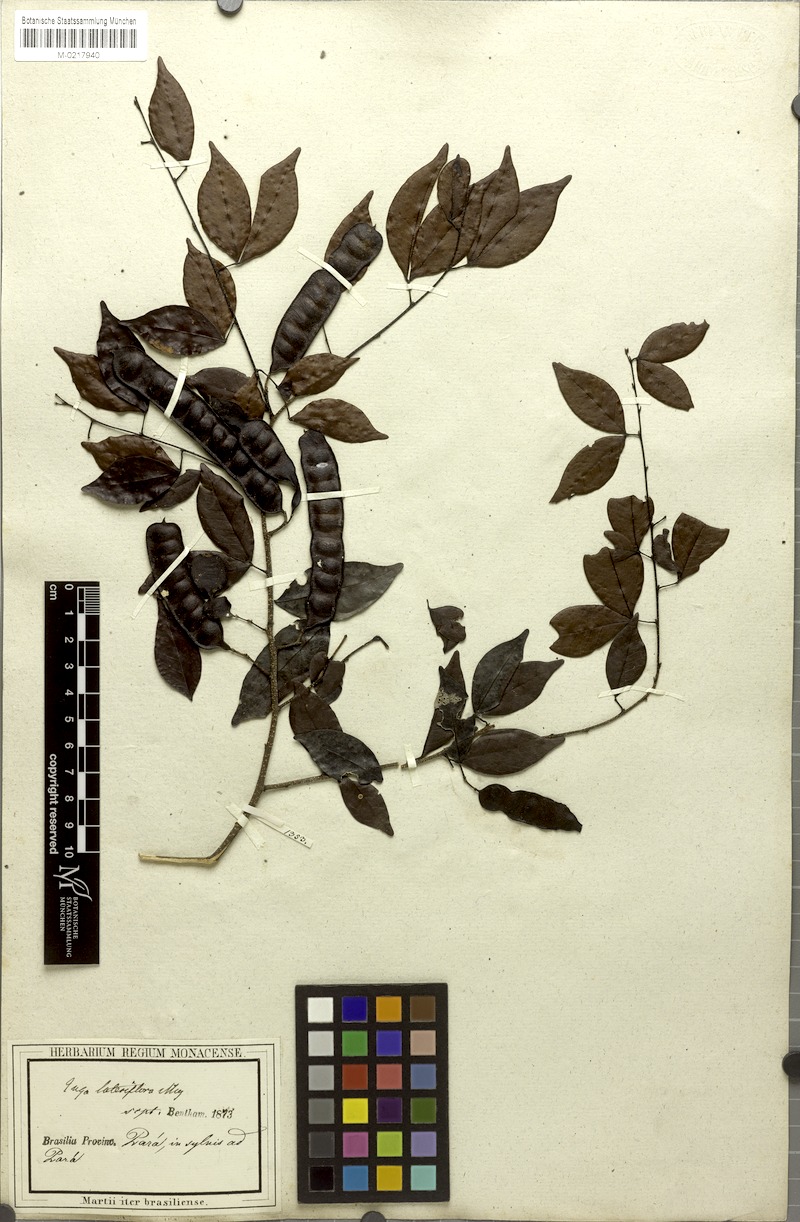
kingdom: Plantae
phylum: Tracheophyta
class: Magnoliopsida
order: Fabales
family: Fabaceae
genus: Inga
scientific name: Inga lateriflora
